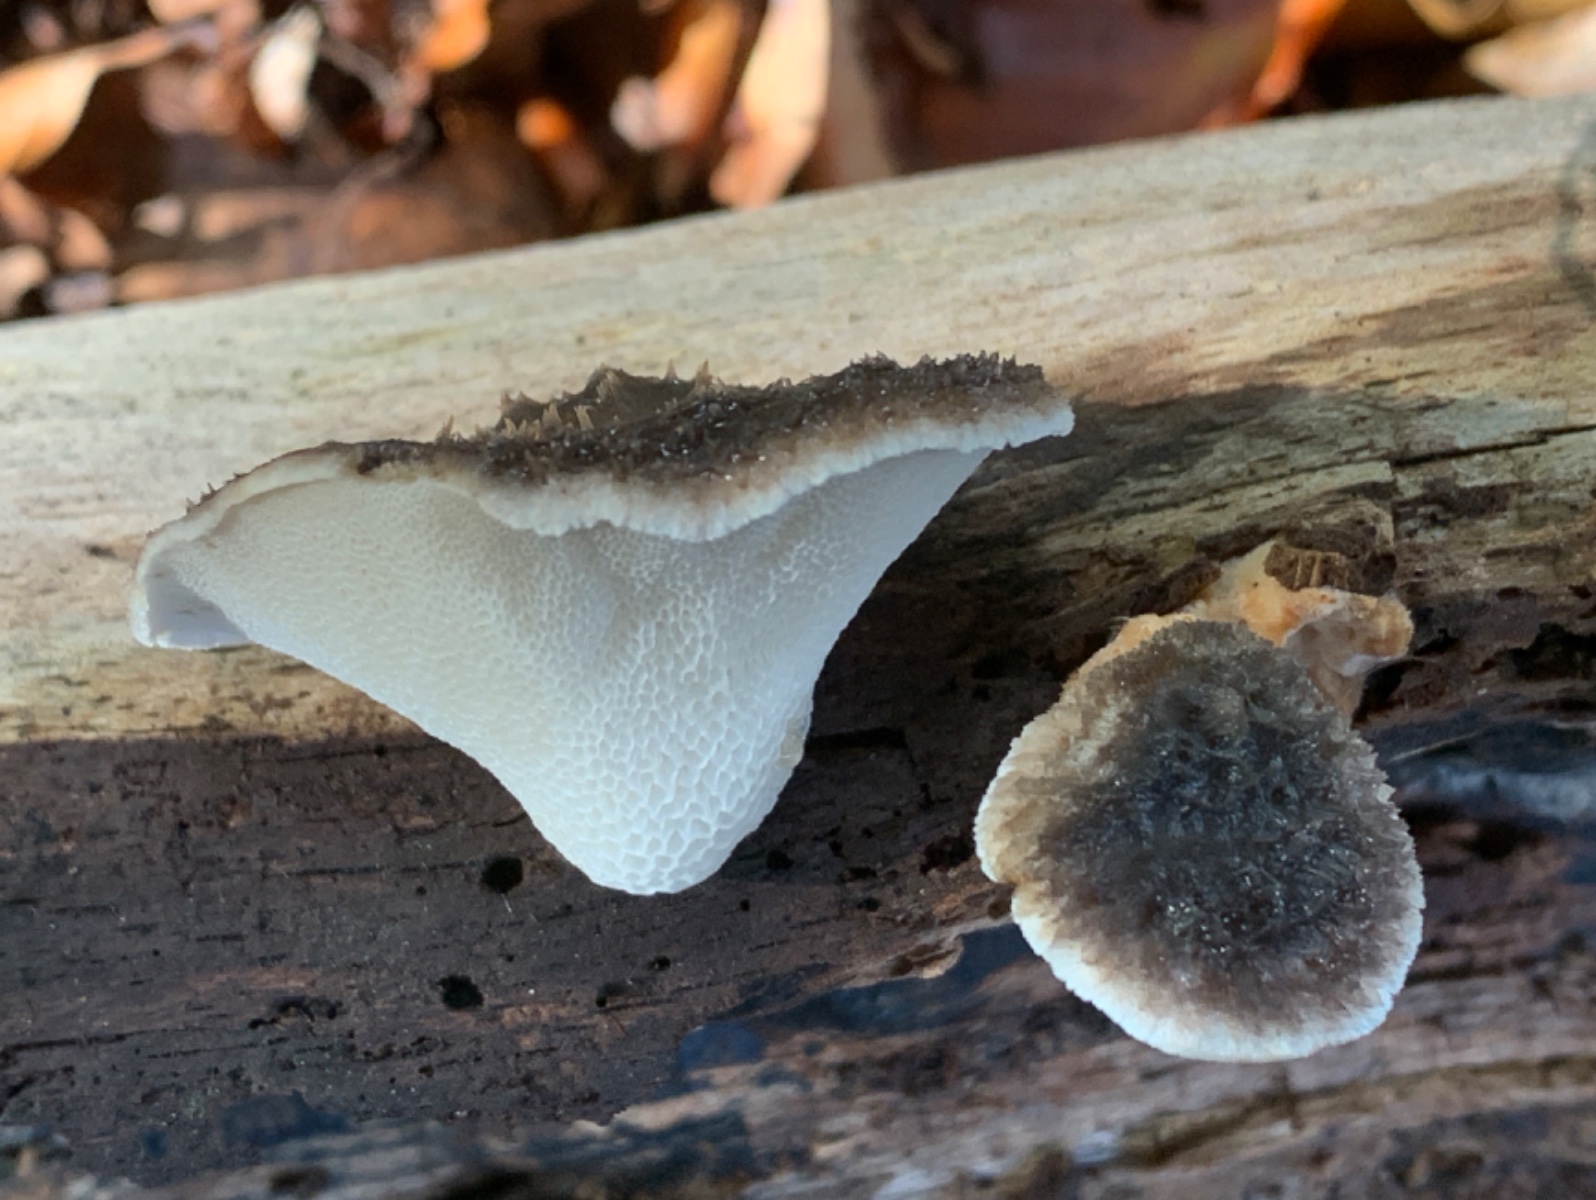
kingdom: Fungi
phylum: Basidiomycota
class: Agaricomycetes
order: Polyporales
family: Polyporaceae
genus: Polyporus
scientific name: Polyporus tuberaster
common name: knoldet stilkporesvamp
